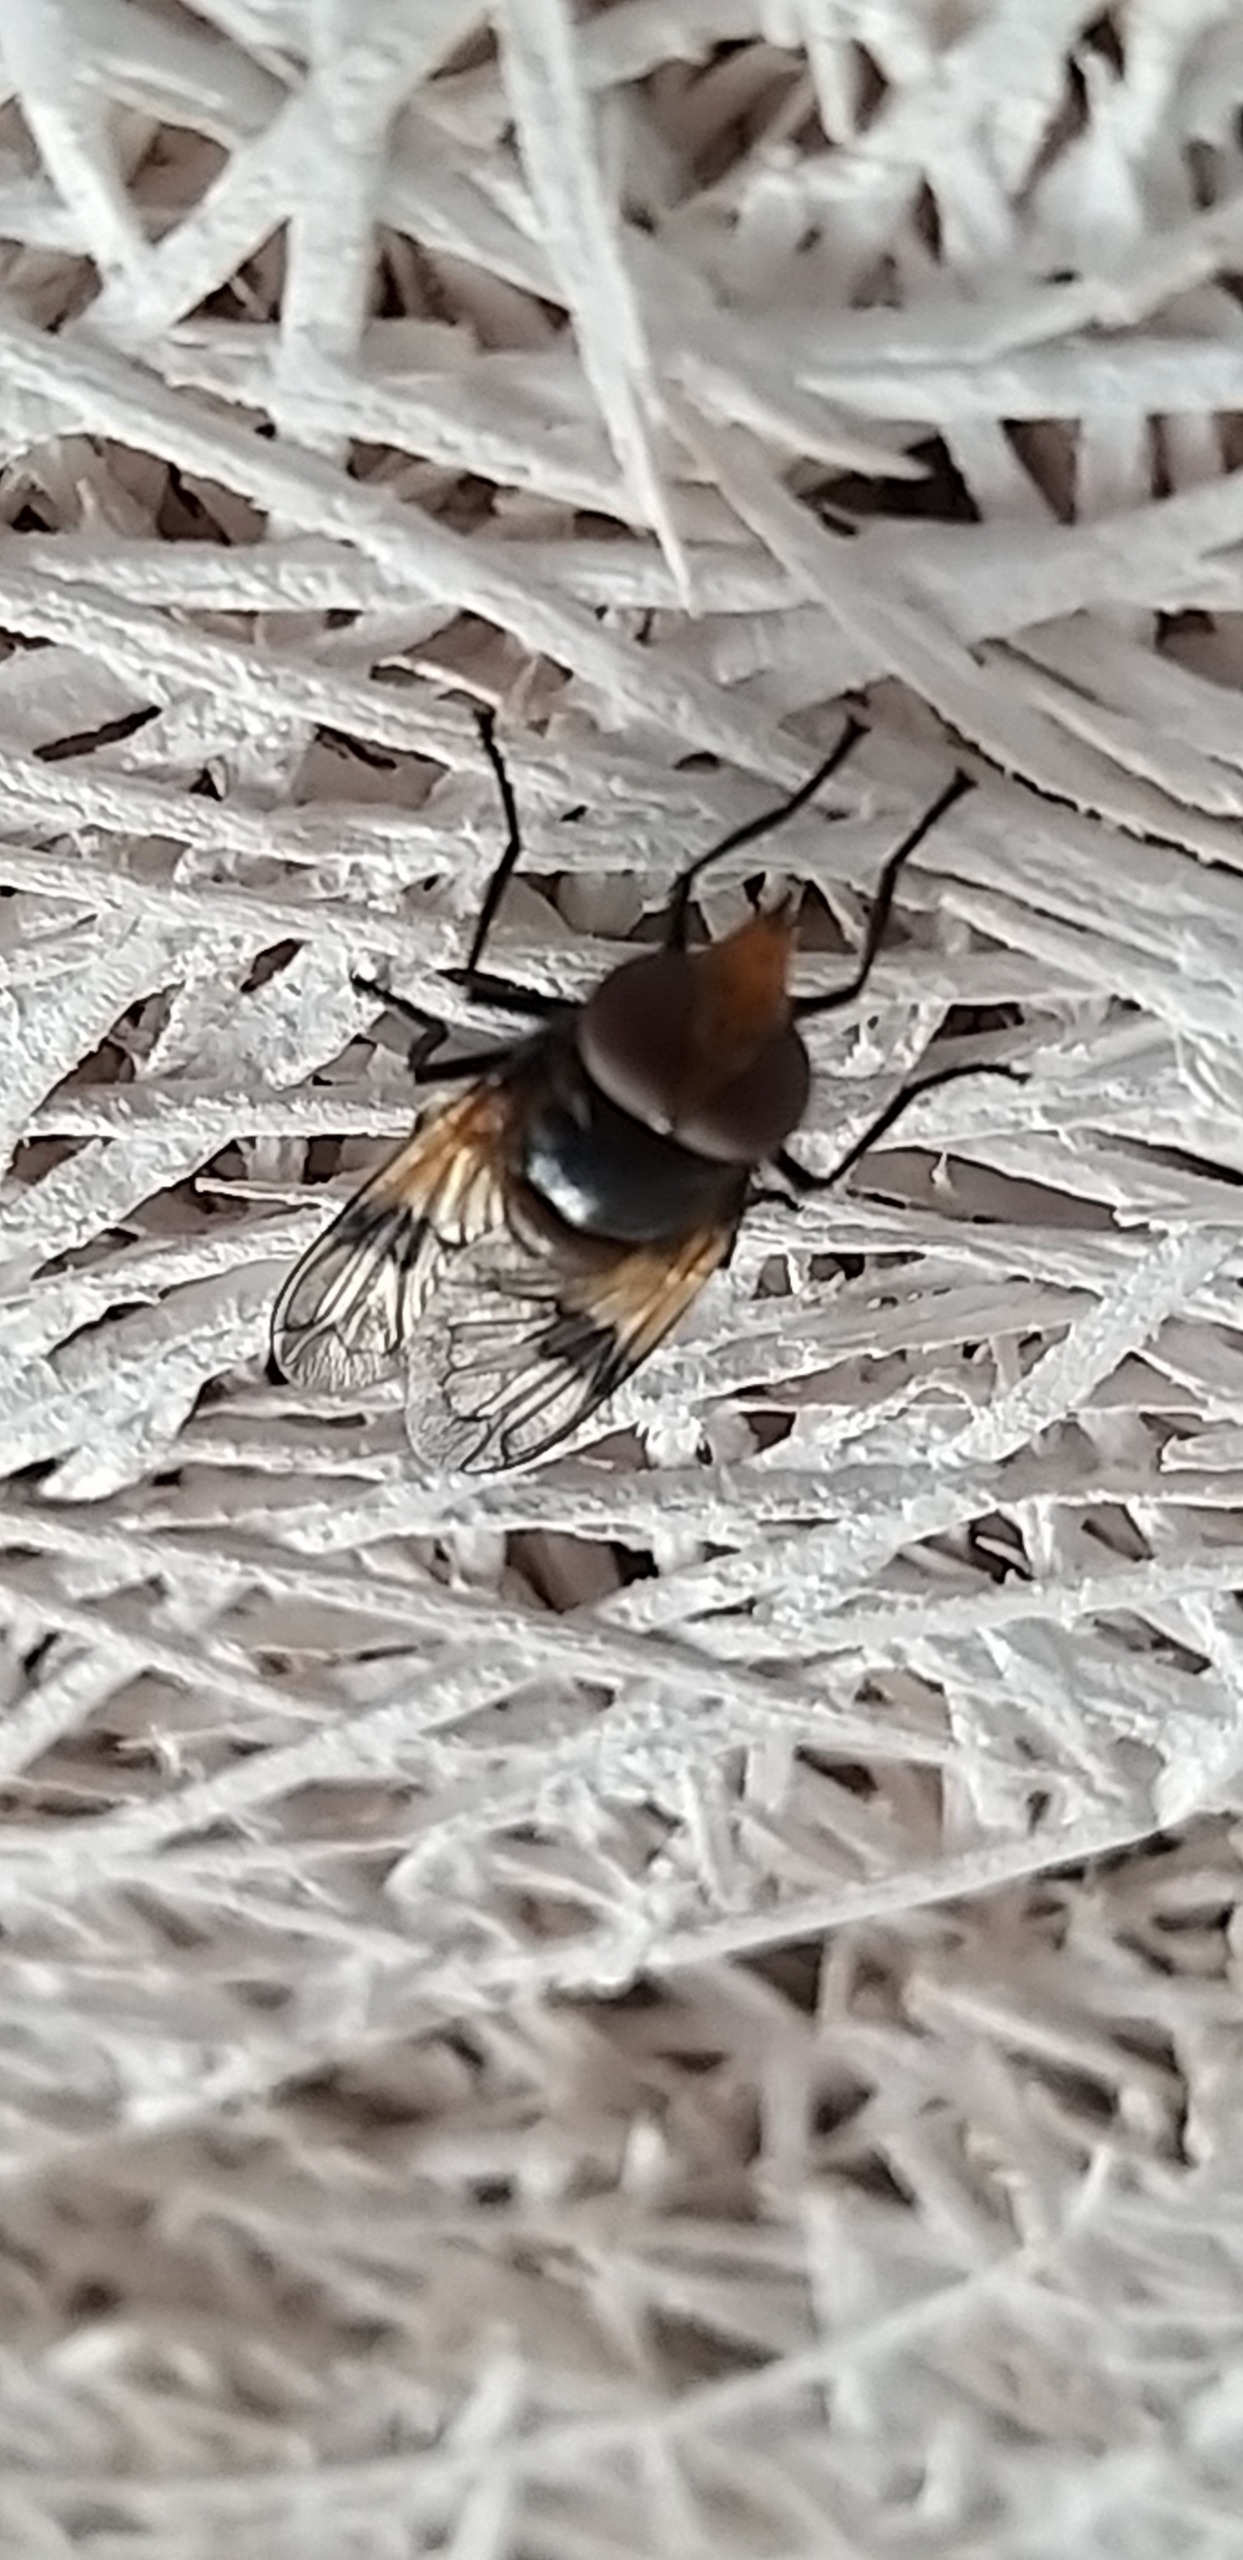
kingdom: Animalia
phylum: Arthropoda
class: Insecta
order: Diptera
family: Syrphidae
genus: Volucella
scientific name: Volucella pellucens
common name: Hvidbåndet humlesvirreflue
